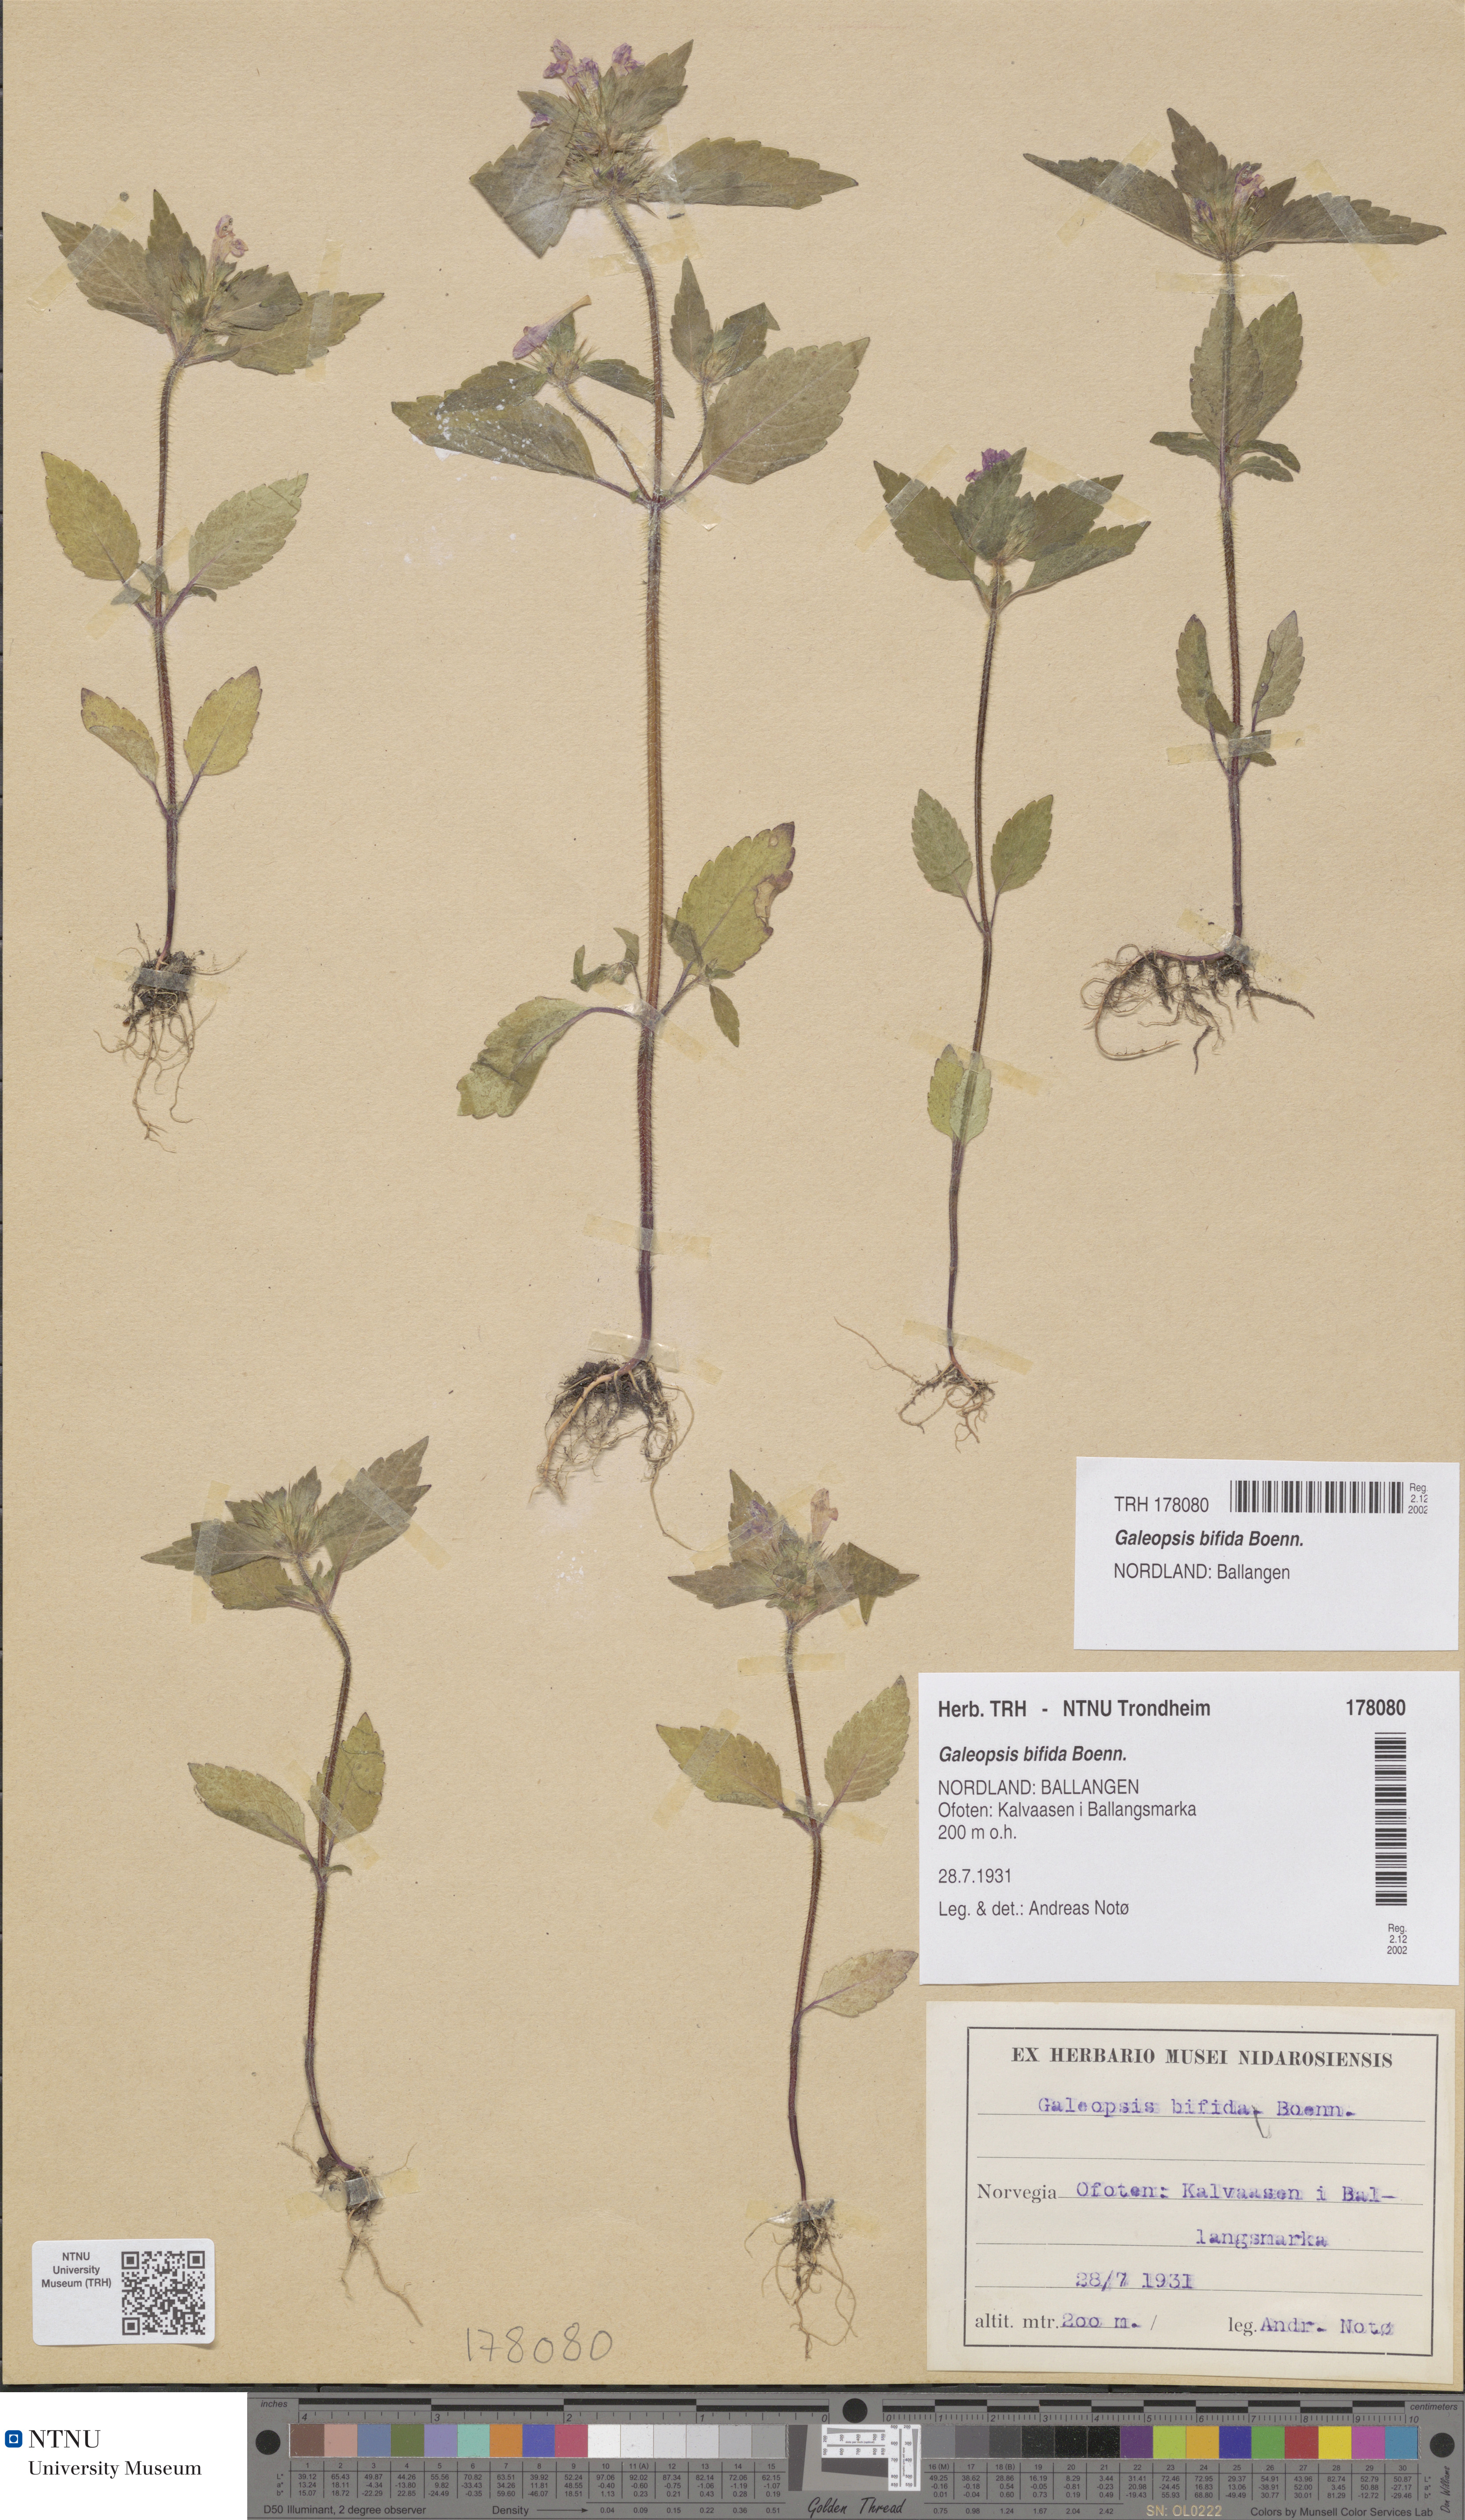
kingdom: Plantae
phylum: Tracheophyta
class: Magnoliopsida
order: Lamiales
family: Lamiaceae
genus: Galeopsis
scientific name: Galeopsis bifida
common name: Bifid hemp-nettle
